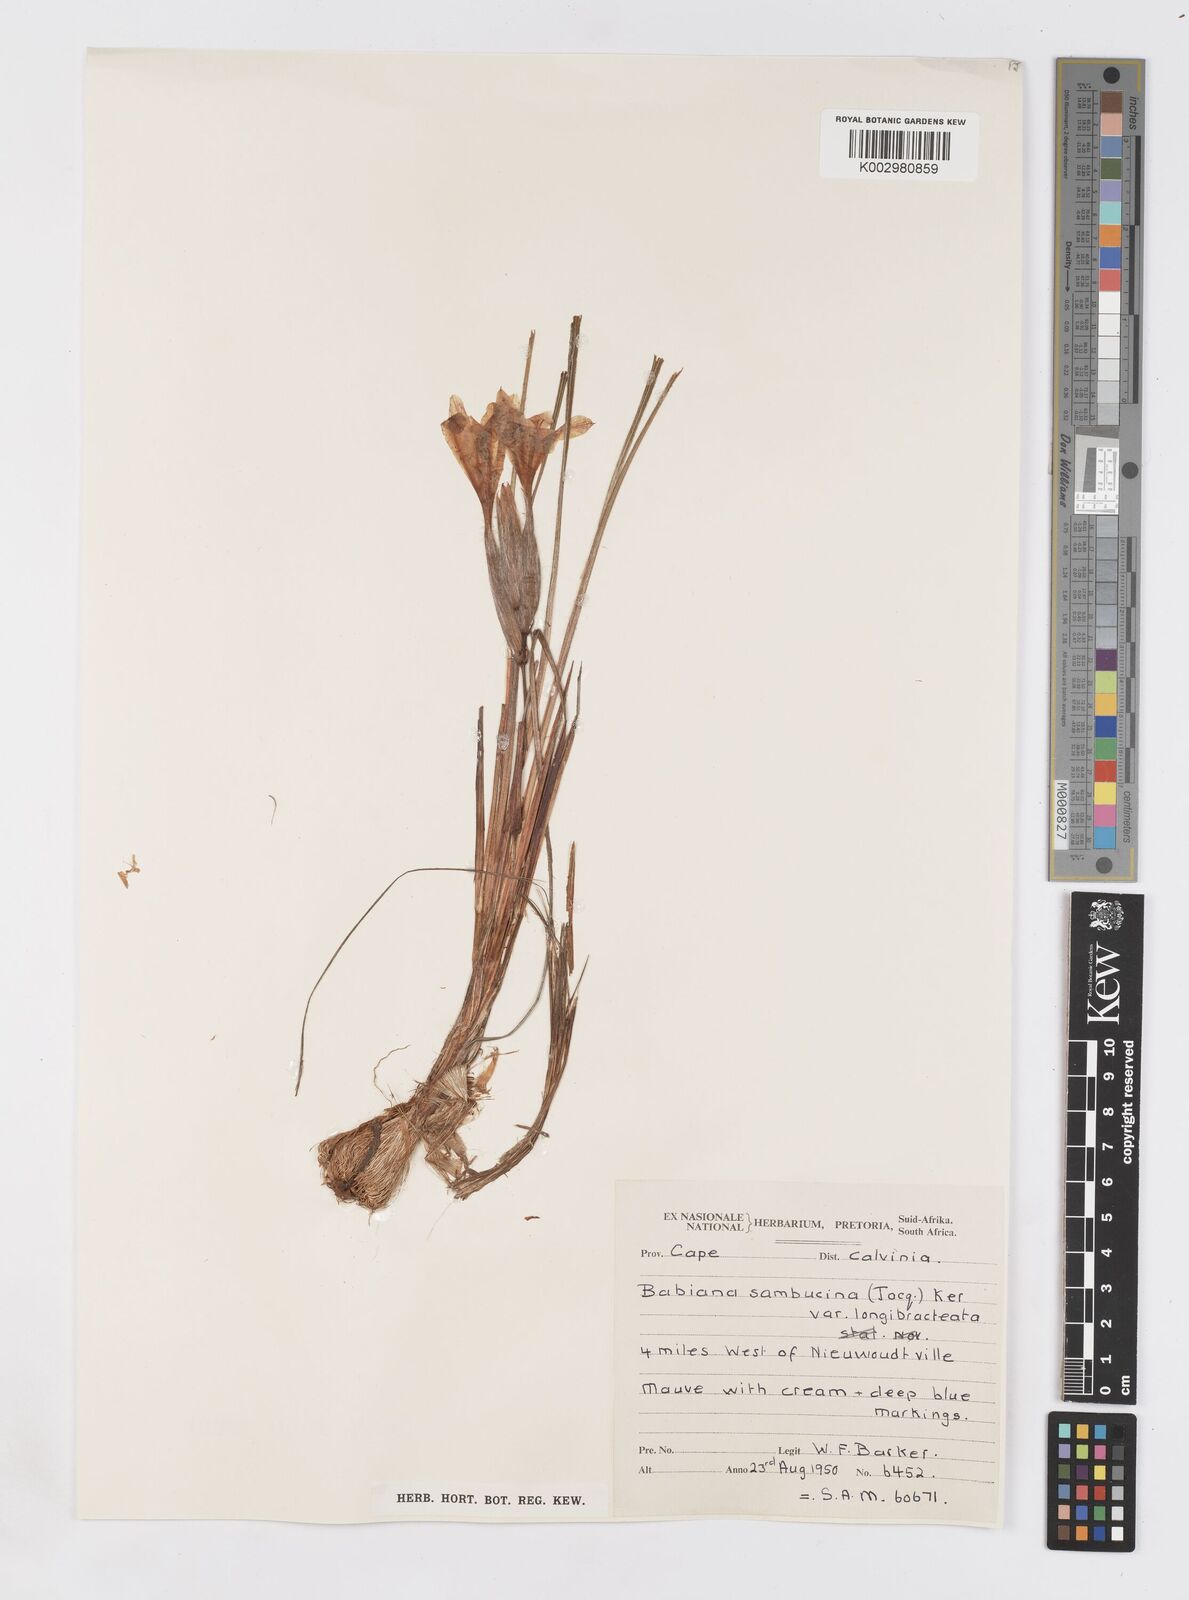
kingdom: Plantae
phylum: Tracheophyta
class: Liliopsida
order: Asparagales
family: Iridaceae
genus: Babiana
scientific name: Babiana sambucina
